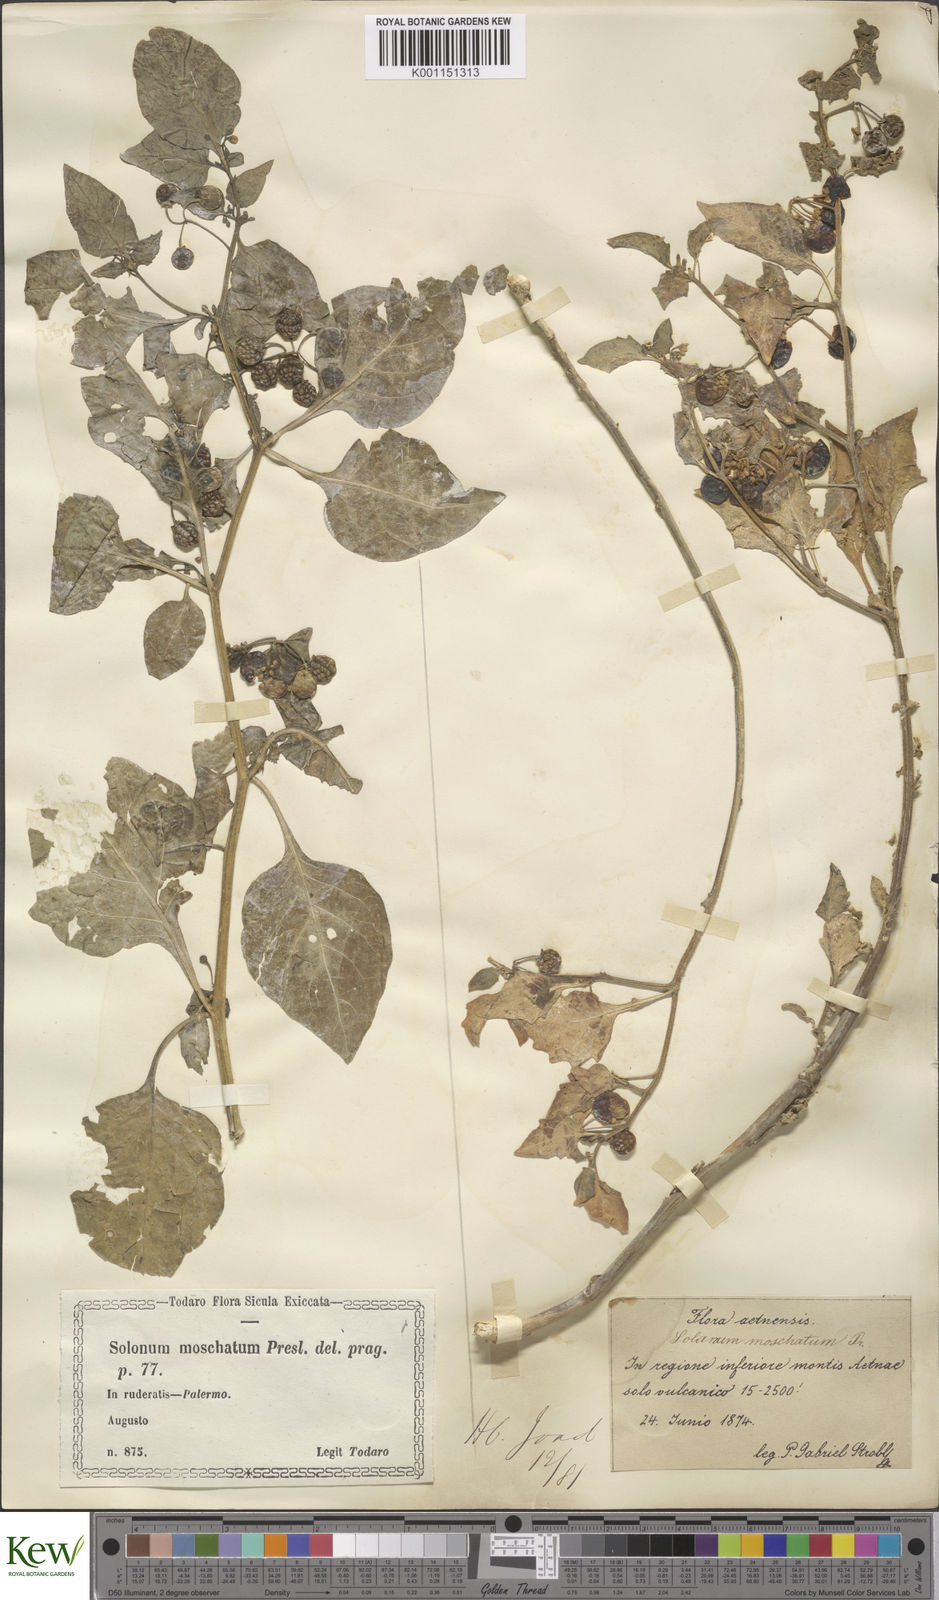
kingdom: Plantae
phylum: Tracheophyta
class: Magnoliopsida
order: Solanales
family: Solanaceae
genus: Solanum
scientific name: Solanum nigrum
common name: Black nightshade
